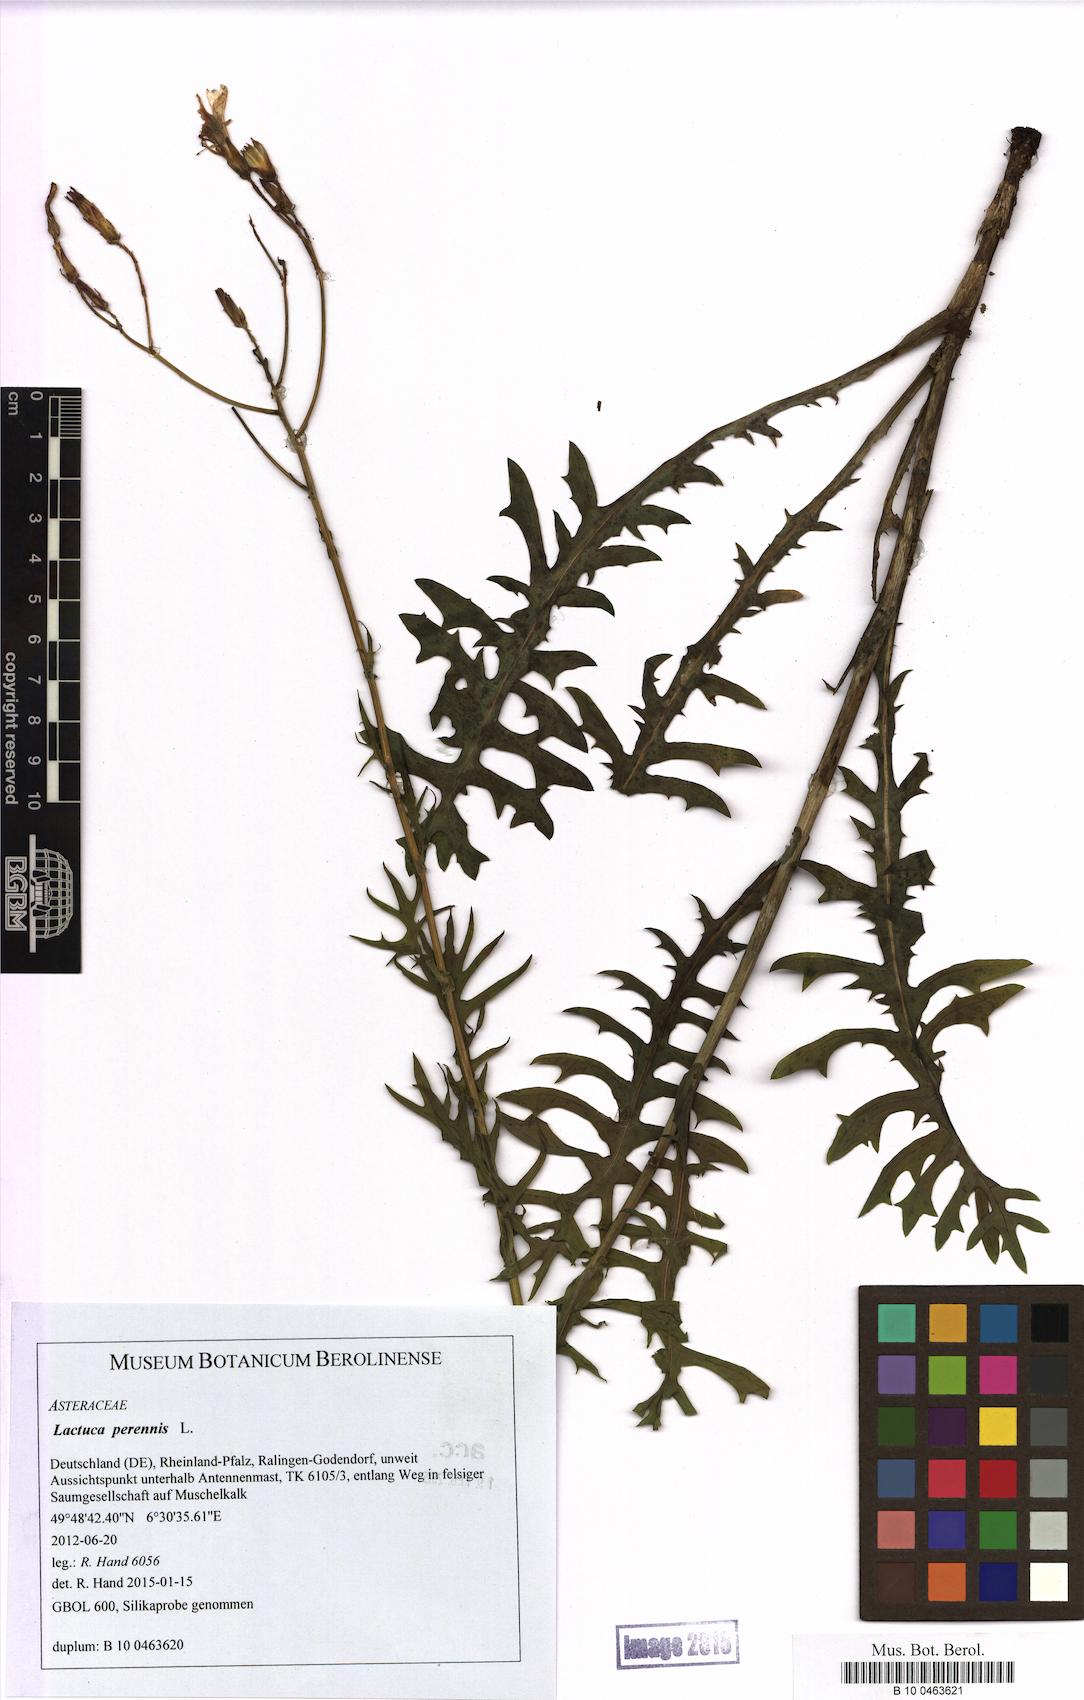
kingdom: Plantae
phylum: Tracheophyta
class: Magnoliopsida
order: Asterales
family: Asteraceae
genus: Lactuca
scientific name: Lactuca perennis
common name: Mountain lettuce
